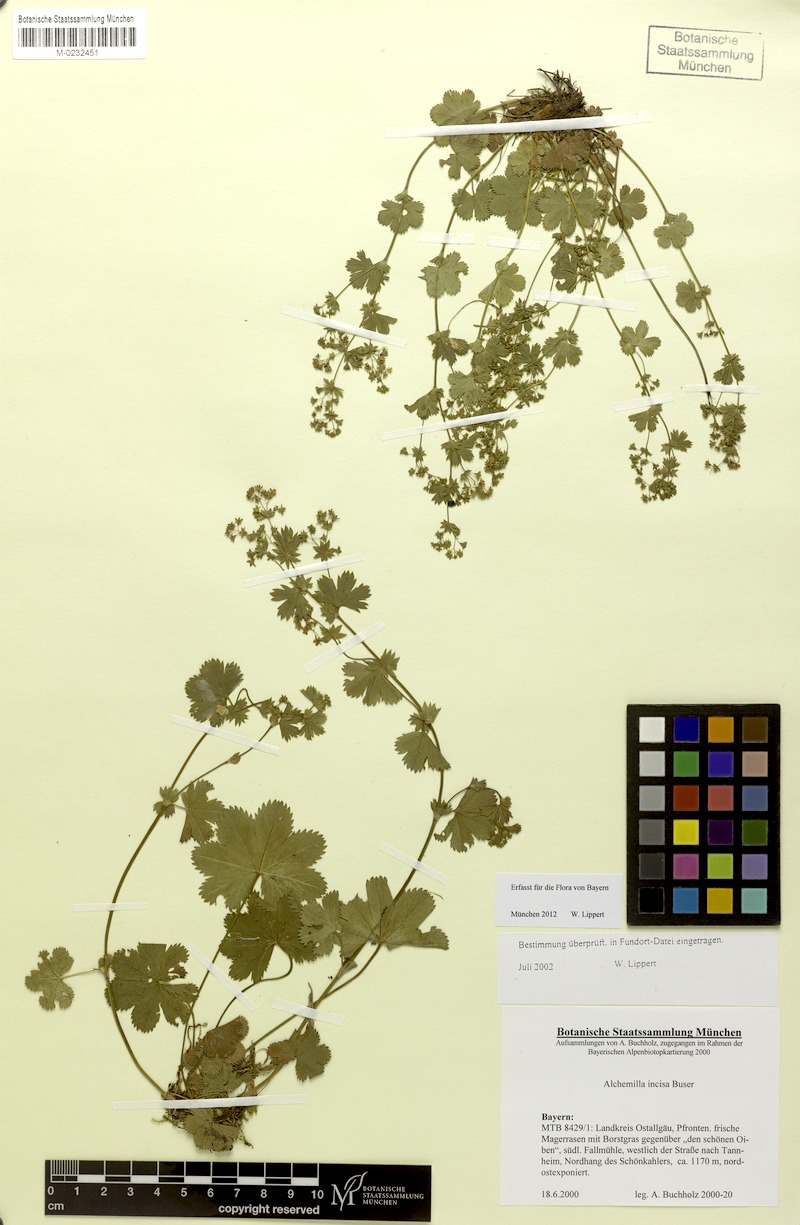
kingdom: Plantae
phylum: Tracheophyta
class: Magnoliopsida
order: Rosales
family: Rosaceae
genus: Alchemilla
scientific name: Alchemilla incisa
